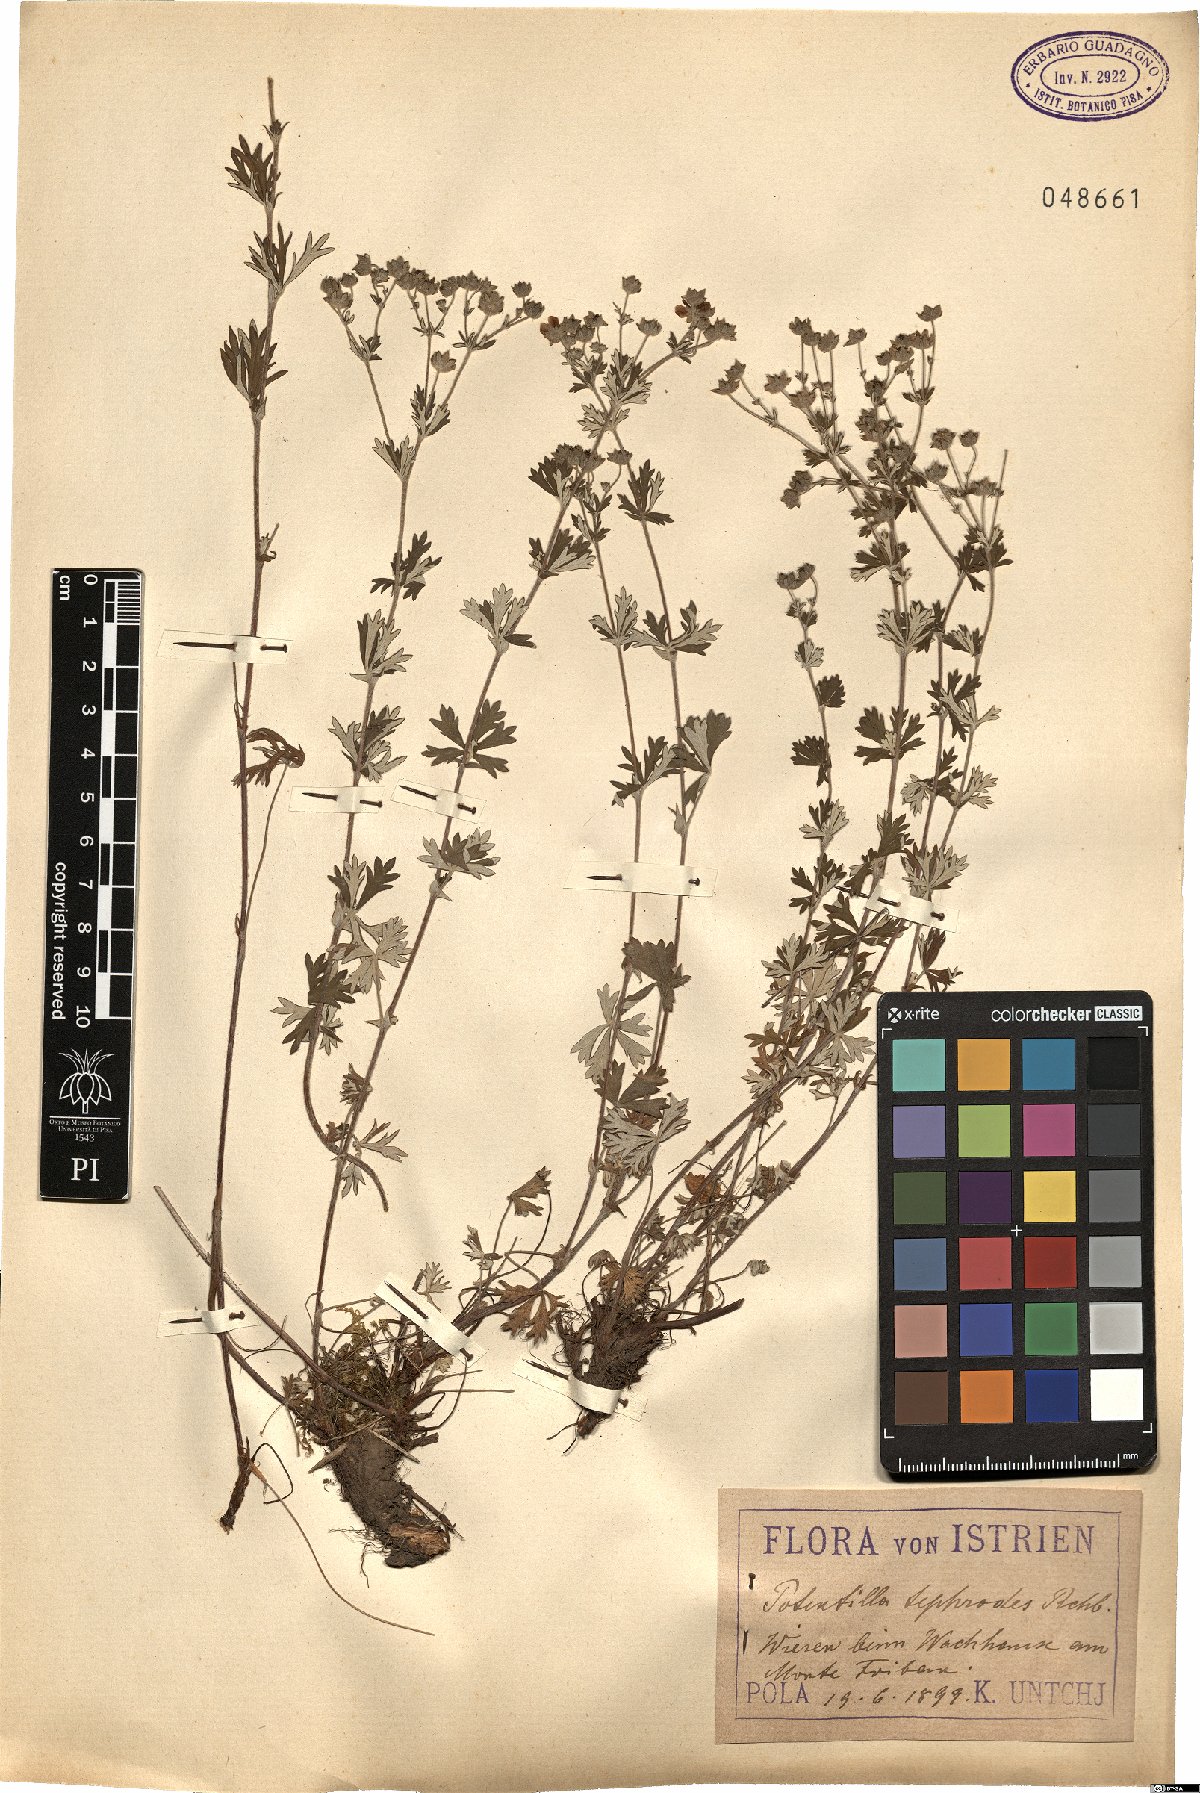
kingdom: Plantae
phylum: Tracheophyta
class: Magnoliopsida
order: Rosales
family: Rosaceae
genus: Potentilla
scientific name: Potentilla neglecta
